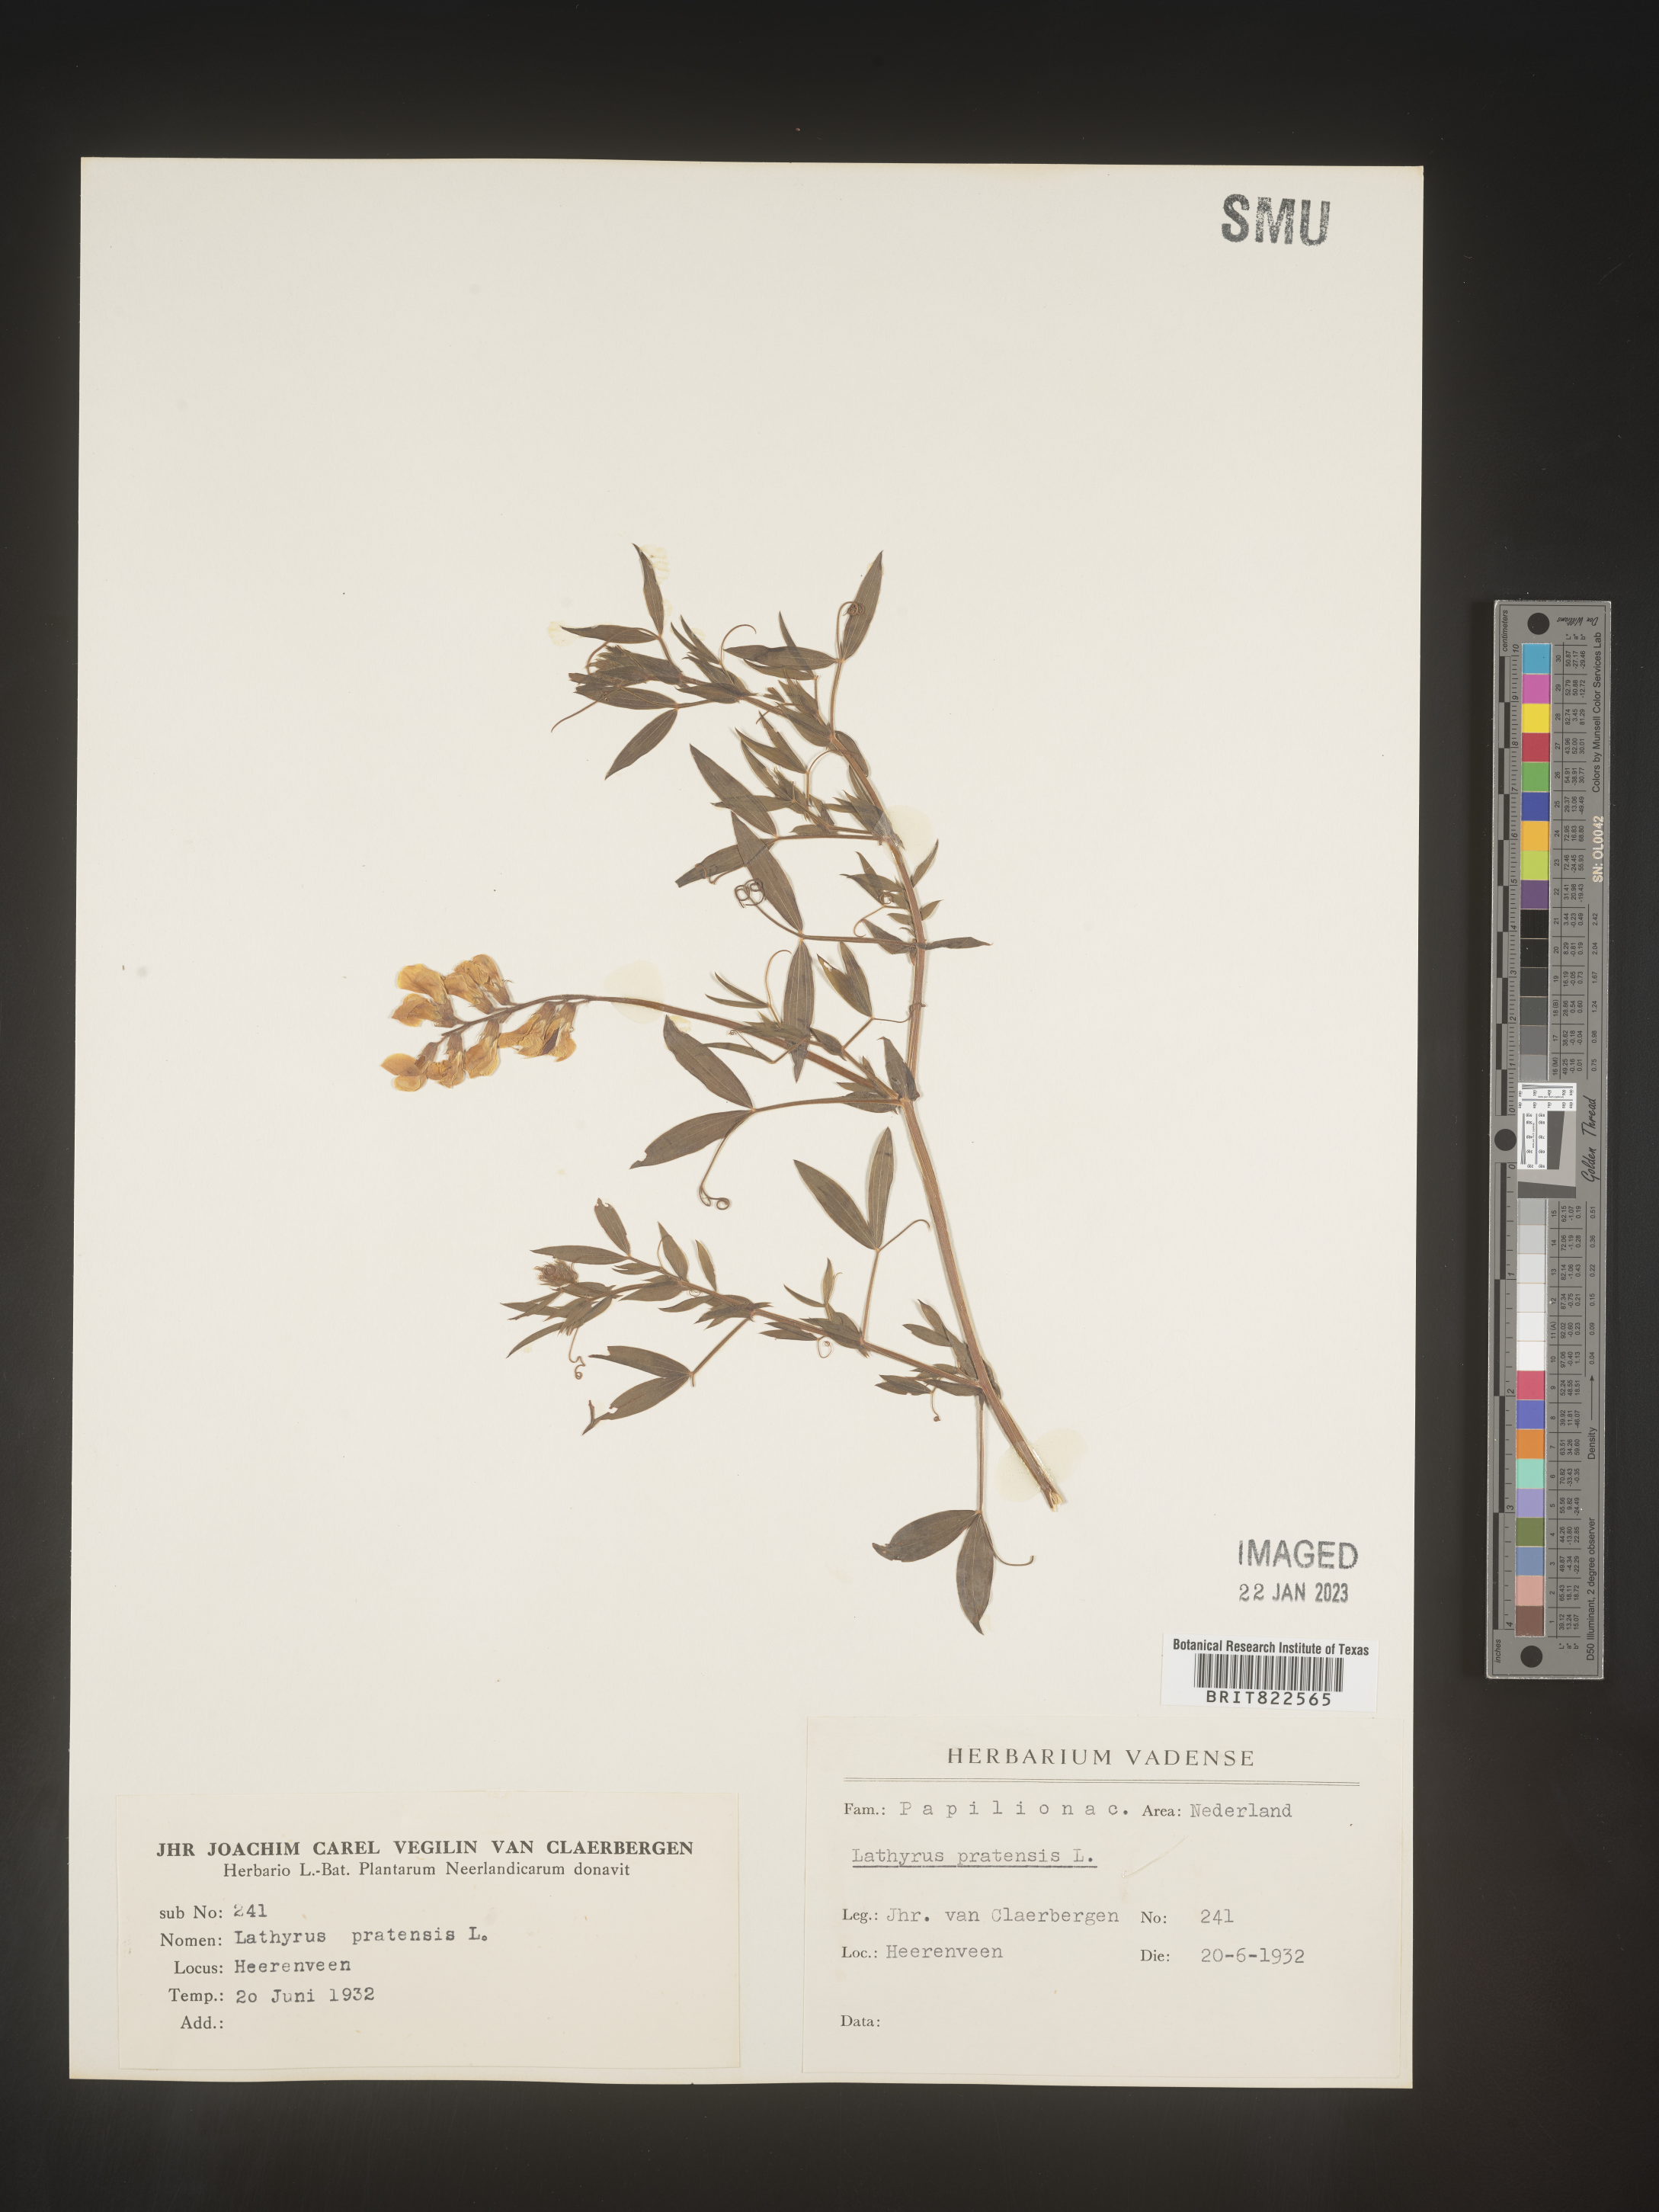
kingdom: Plantae
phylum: Tracheophyta
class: Magnoliopsida
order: Fabales
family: Fabaceae
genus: Lathyrus
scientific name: Lathyrus
